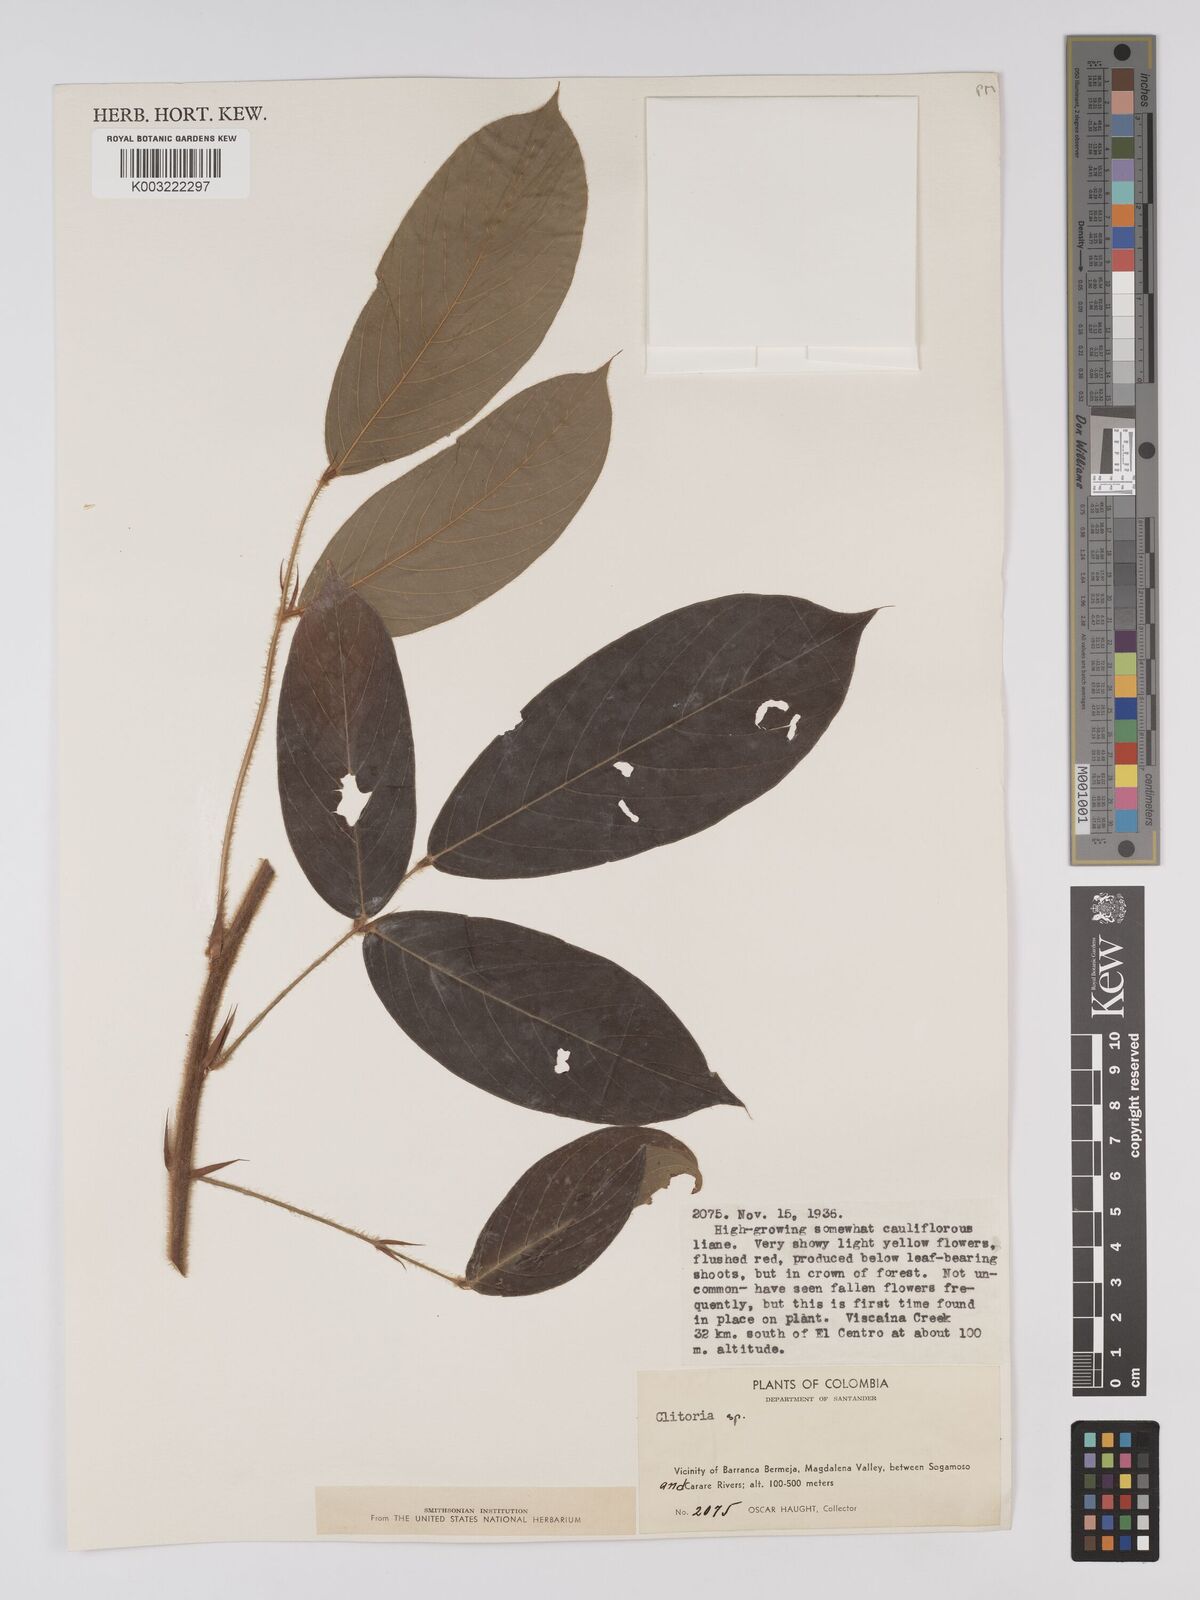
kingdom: Plantae
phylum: Tracheophyta
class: Magnoliopsida
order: Fabales
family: Fabaceae
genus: Clitoria
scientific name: Clitoria
